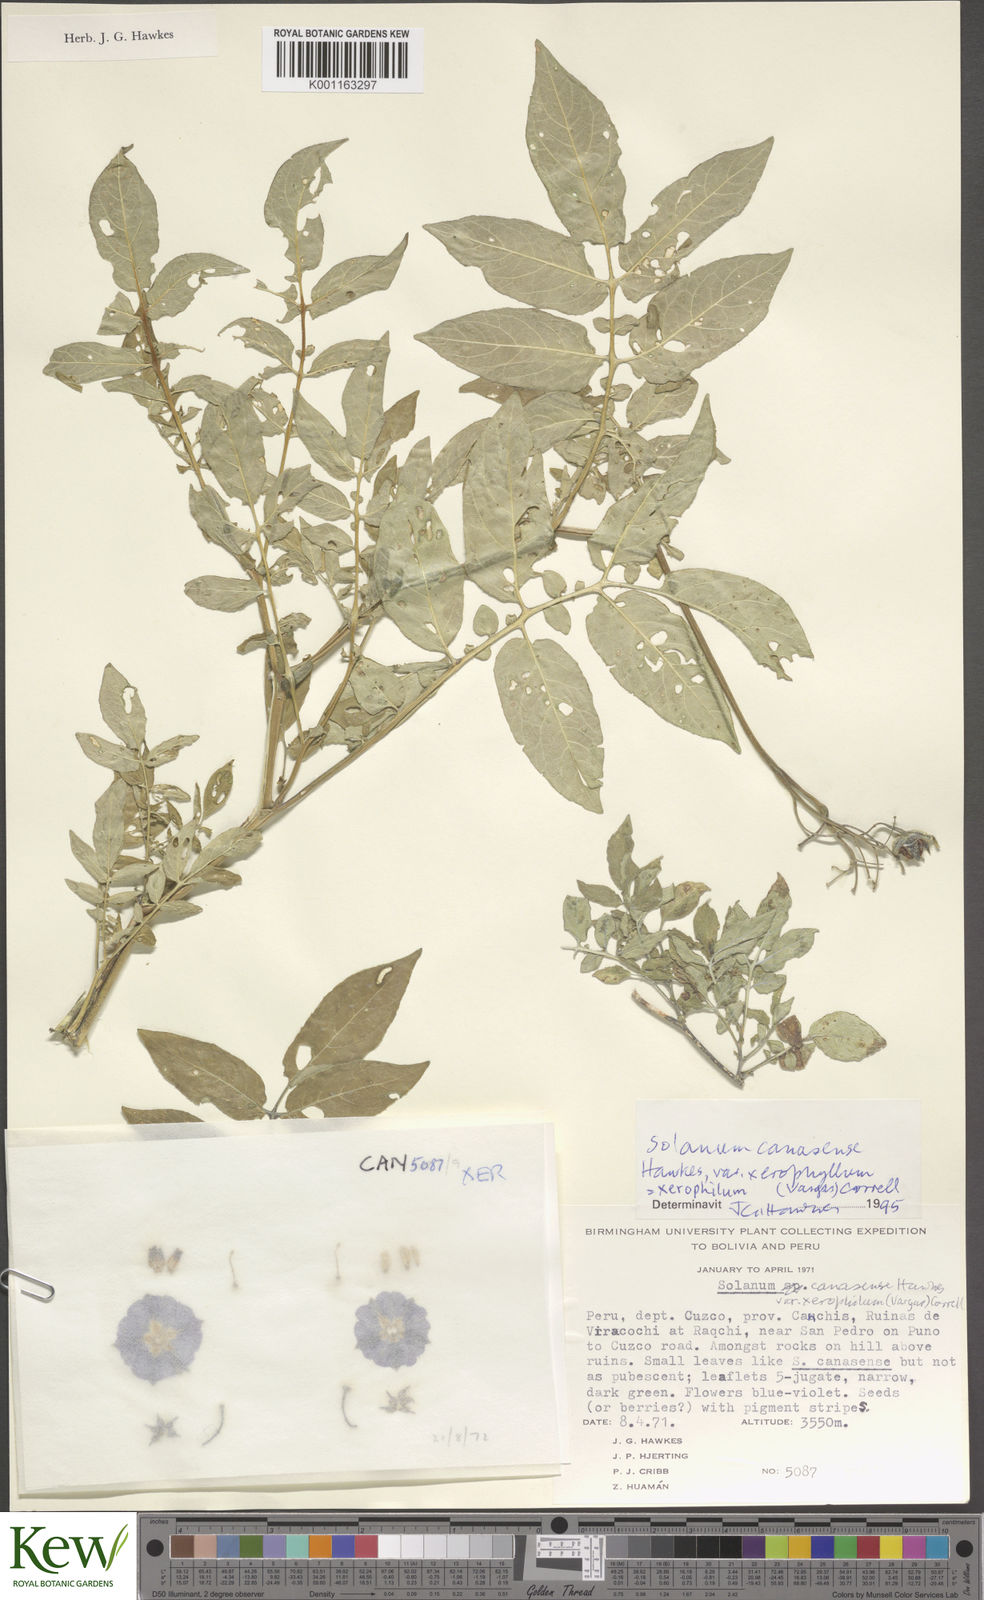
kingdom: Plantae
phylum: Tracheophyta
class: Magnoliopsida
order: Solanales
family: Solanaceae
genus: Solanum
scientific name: Solanum candolleanum
